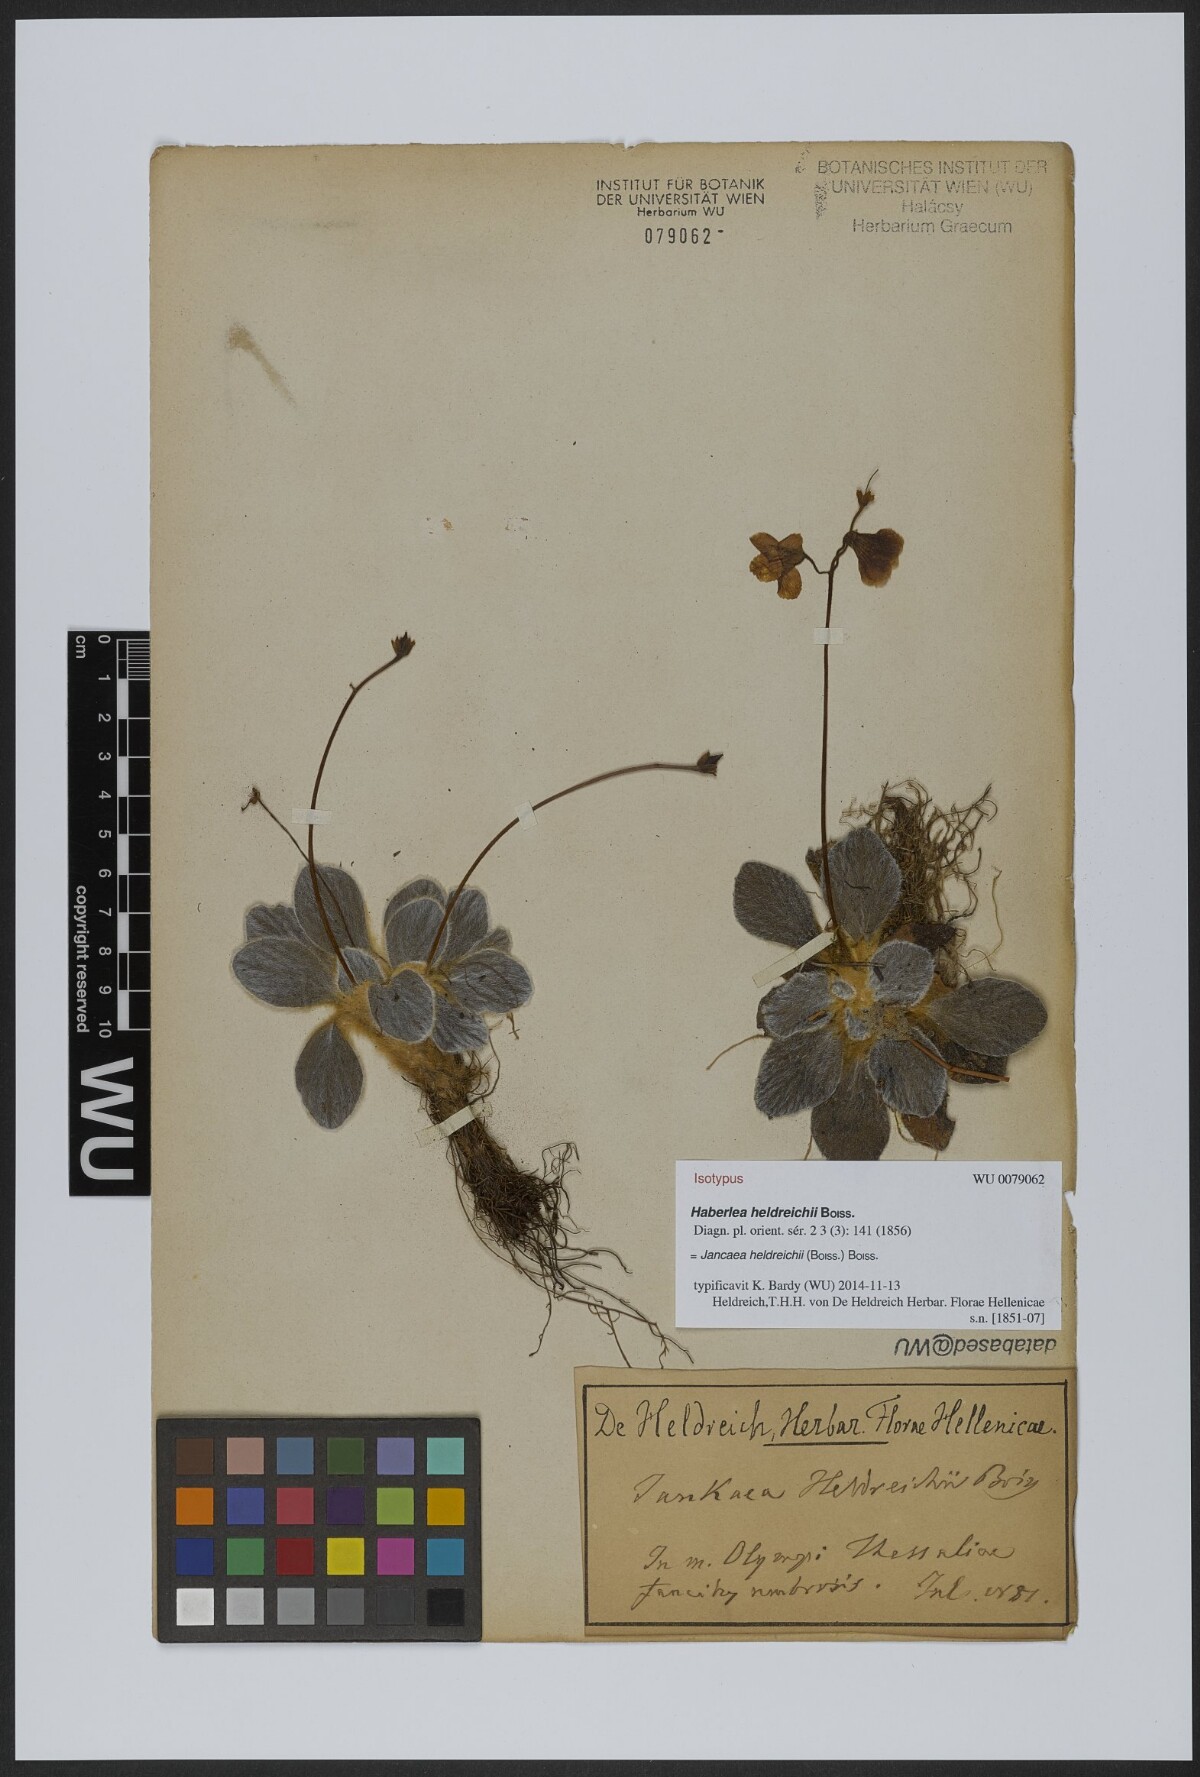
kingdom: Plantae
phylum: Tracheophyta
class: Magnoliopsida
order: Lamiales
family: Gesneriaceae
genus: Ramonda
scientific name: Ramonda heldreichii
